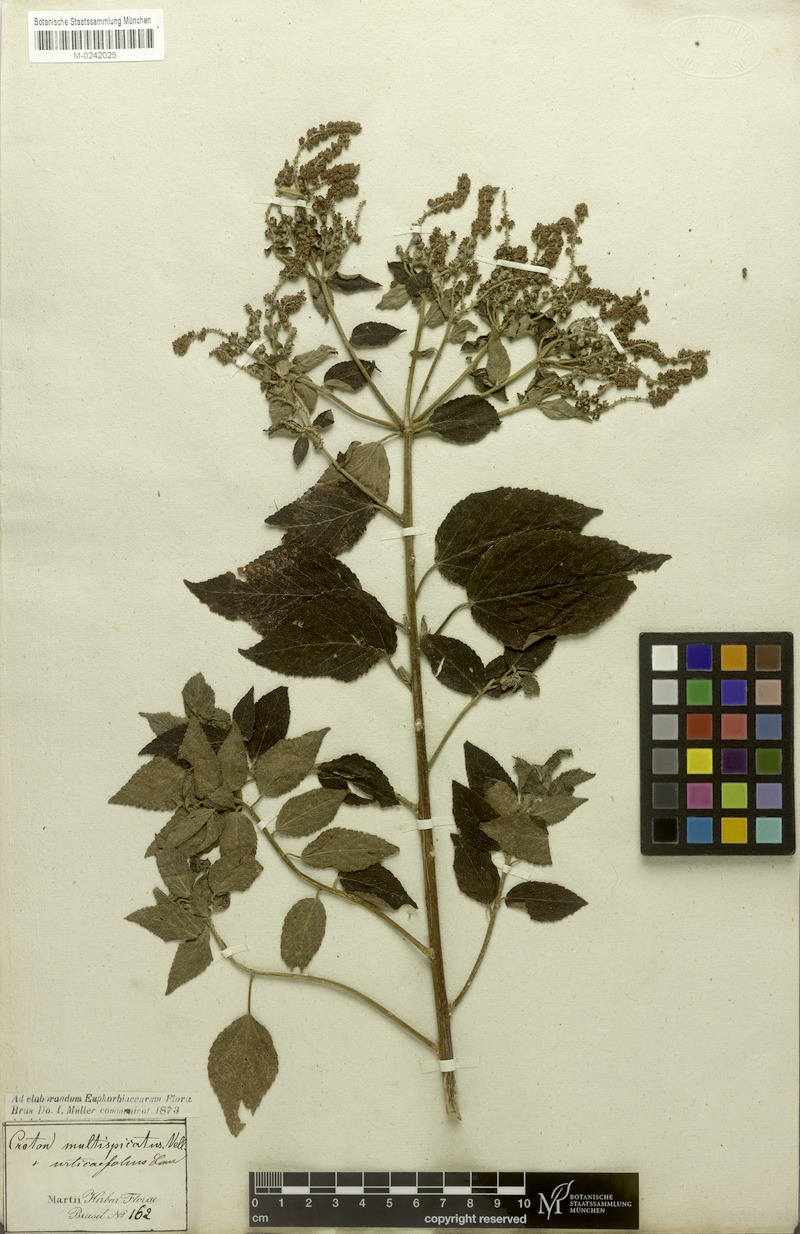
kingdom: Plantae
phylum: Tracheophyta
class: Magnoliopsida
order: Malpighiales
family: Euphorbiaceae
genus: Croton
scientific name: Croton urticifolius
